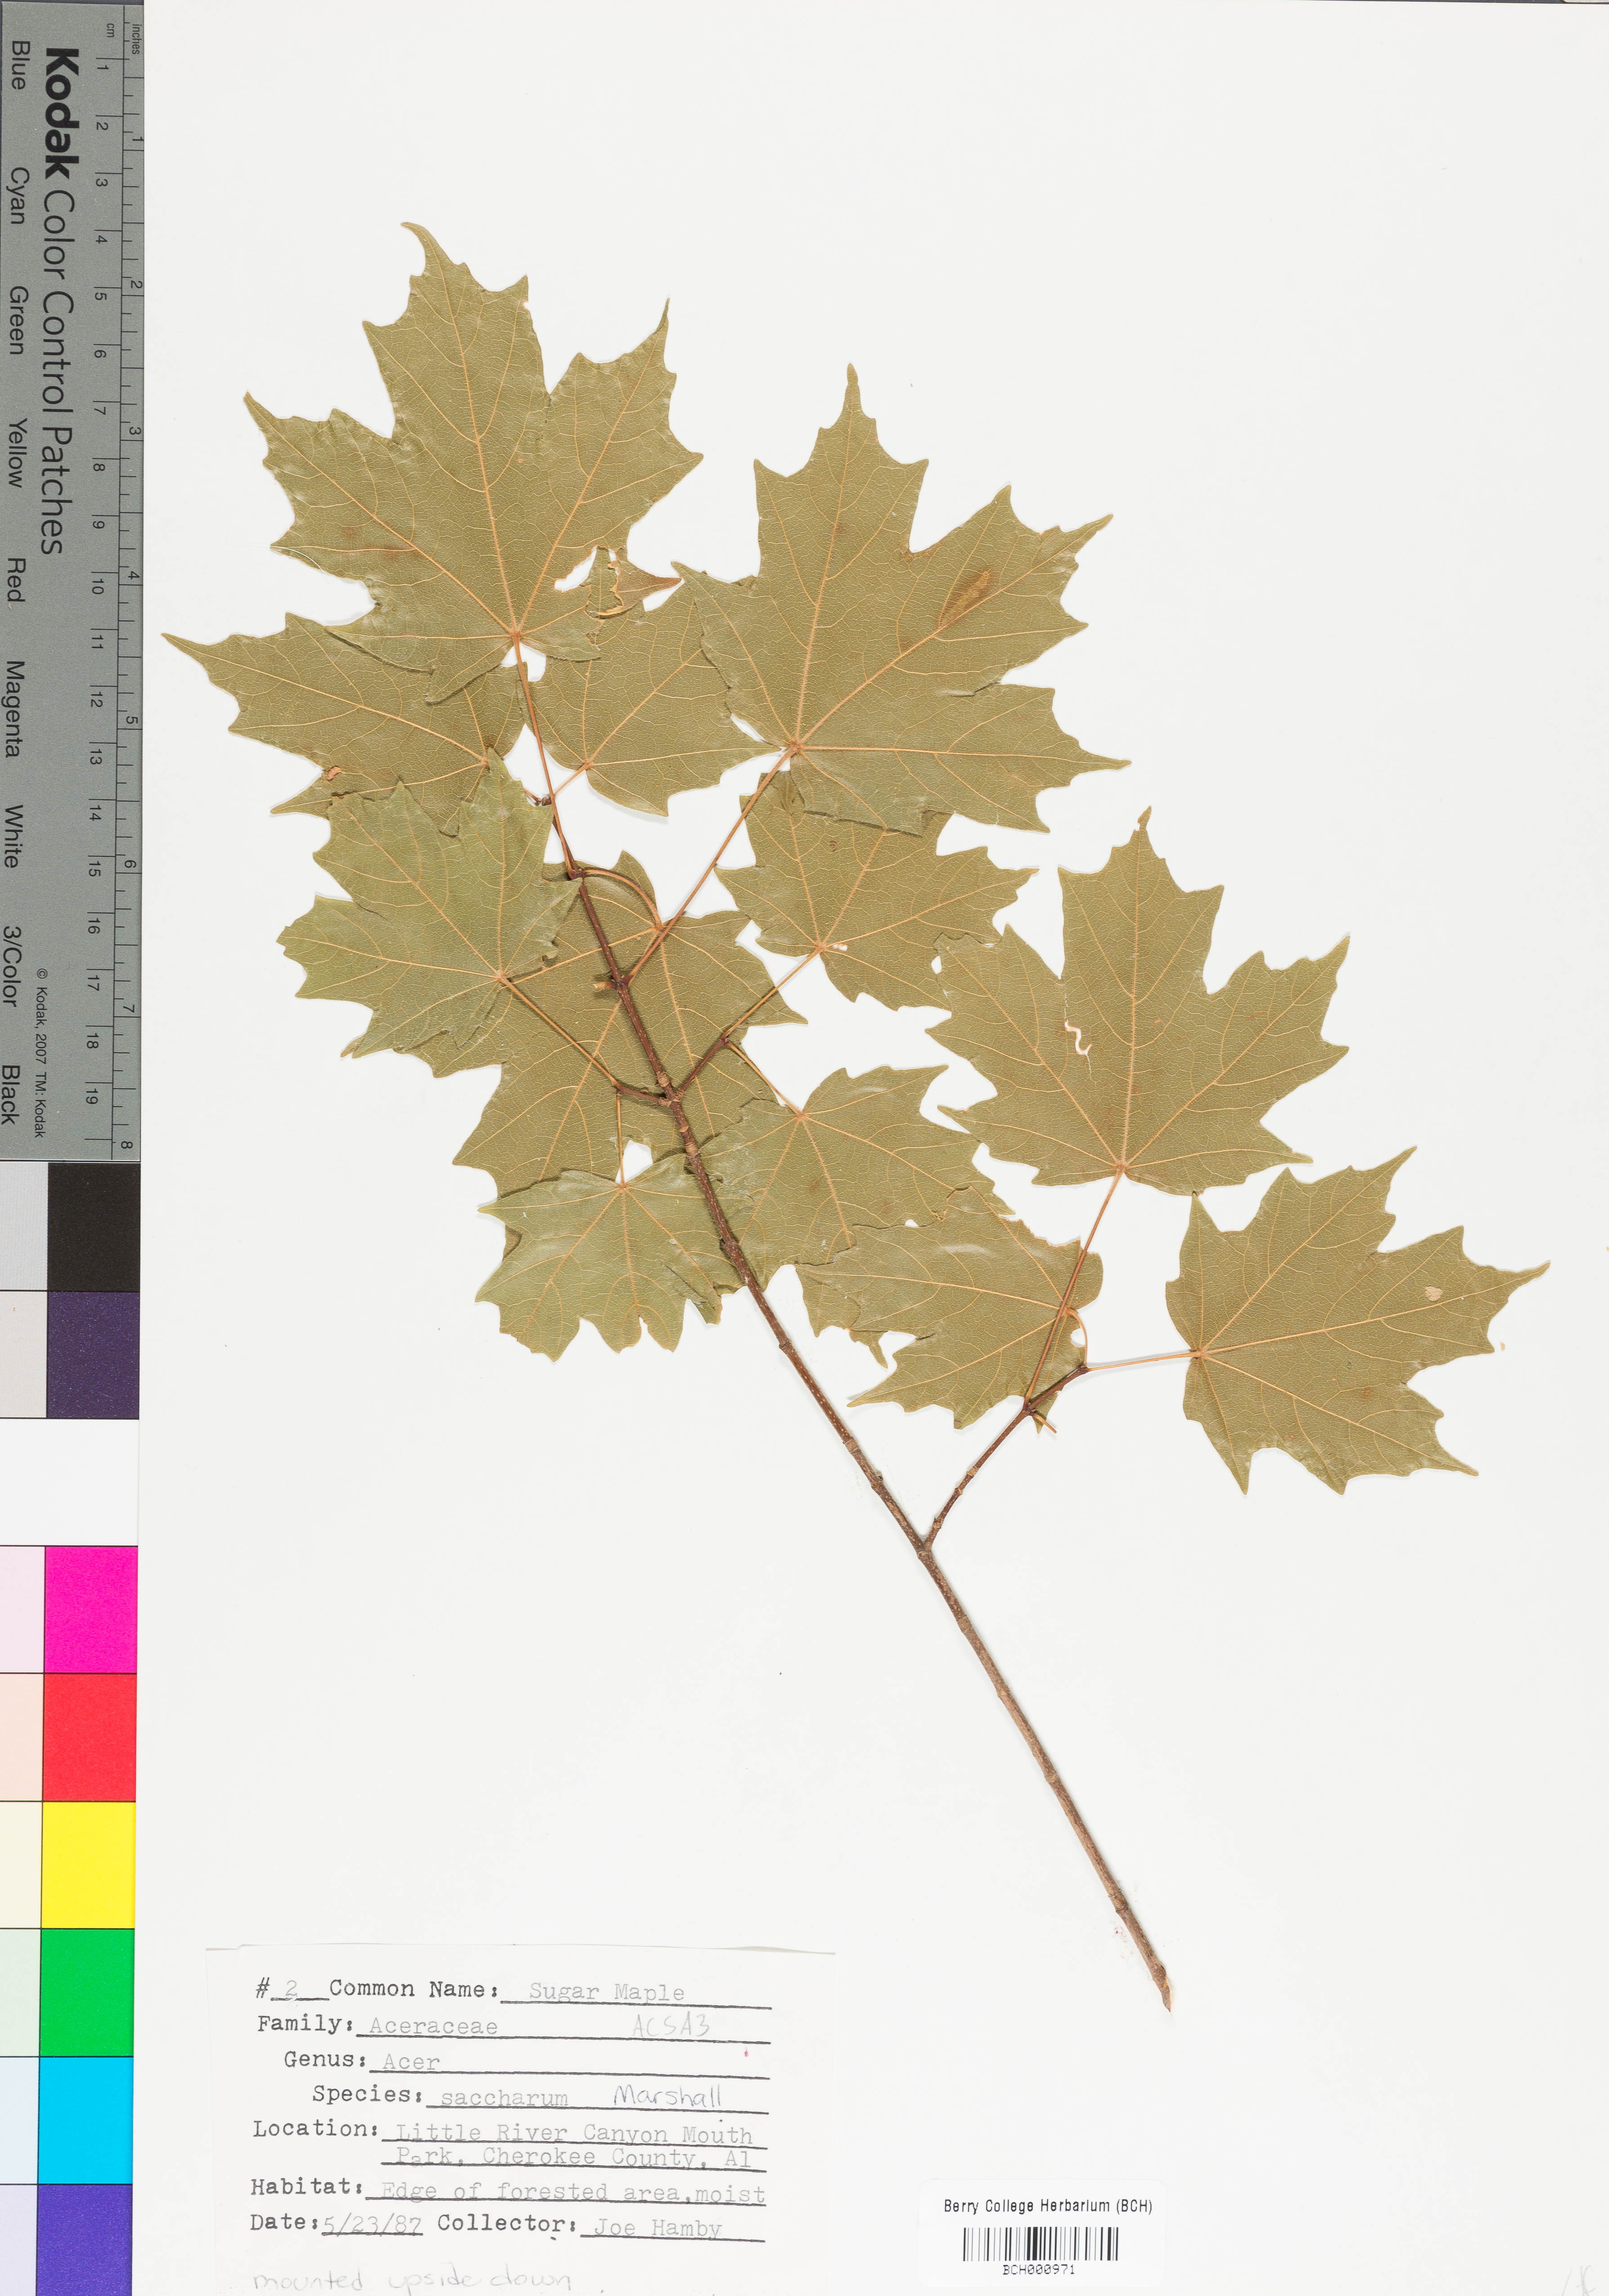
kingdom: Plantae
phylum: Tracheophyta
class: Magnoliopsida
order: Sapindales
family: Sapindaceae
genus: Acer
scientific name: Acer saccharum
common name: Sugar maple
